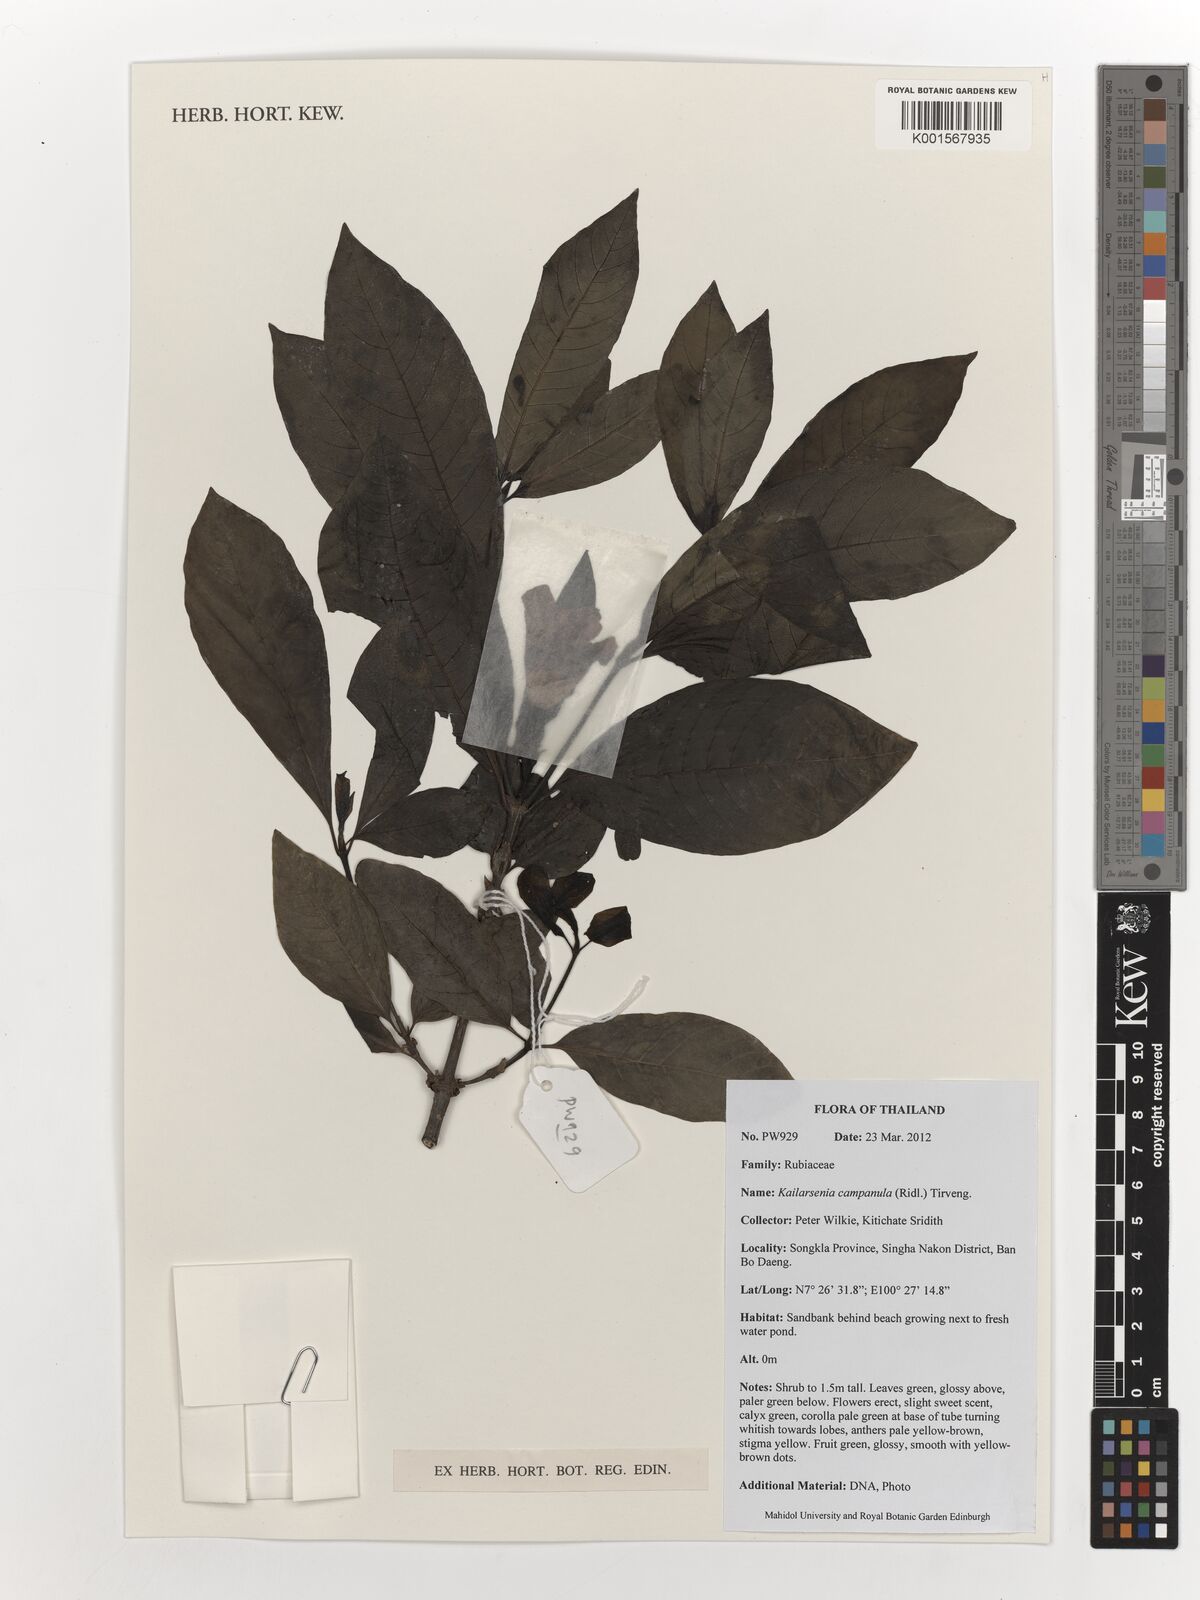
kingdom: Plantae
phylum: Tracheophyta
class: Magnoliopsida
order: Gentianales
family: Rubiaceae
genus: Kailarsenia
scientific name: Kailarsenia campanula
